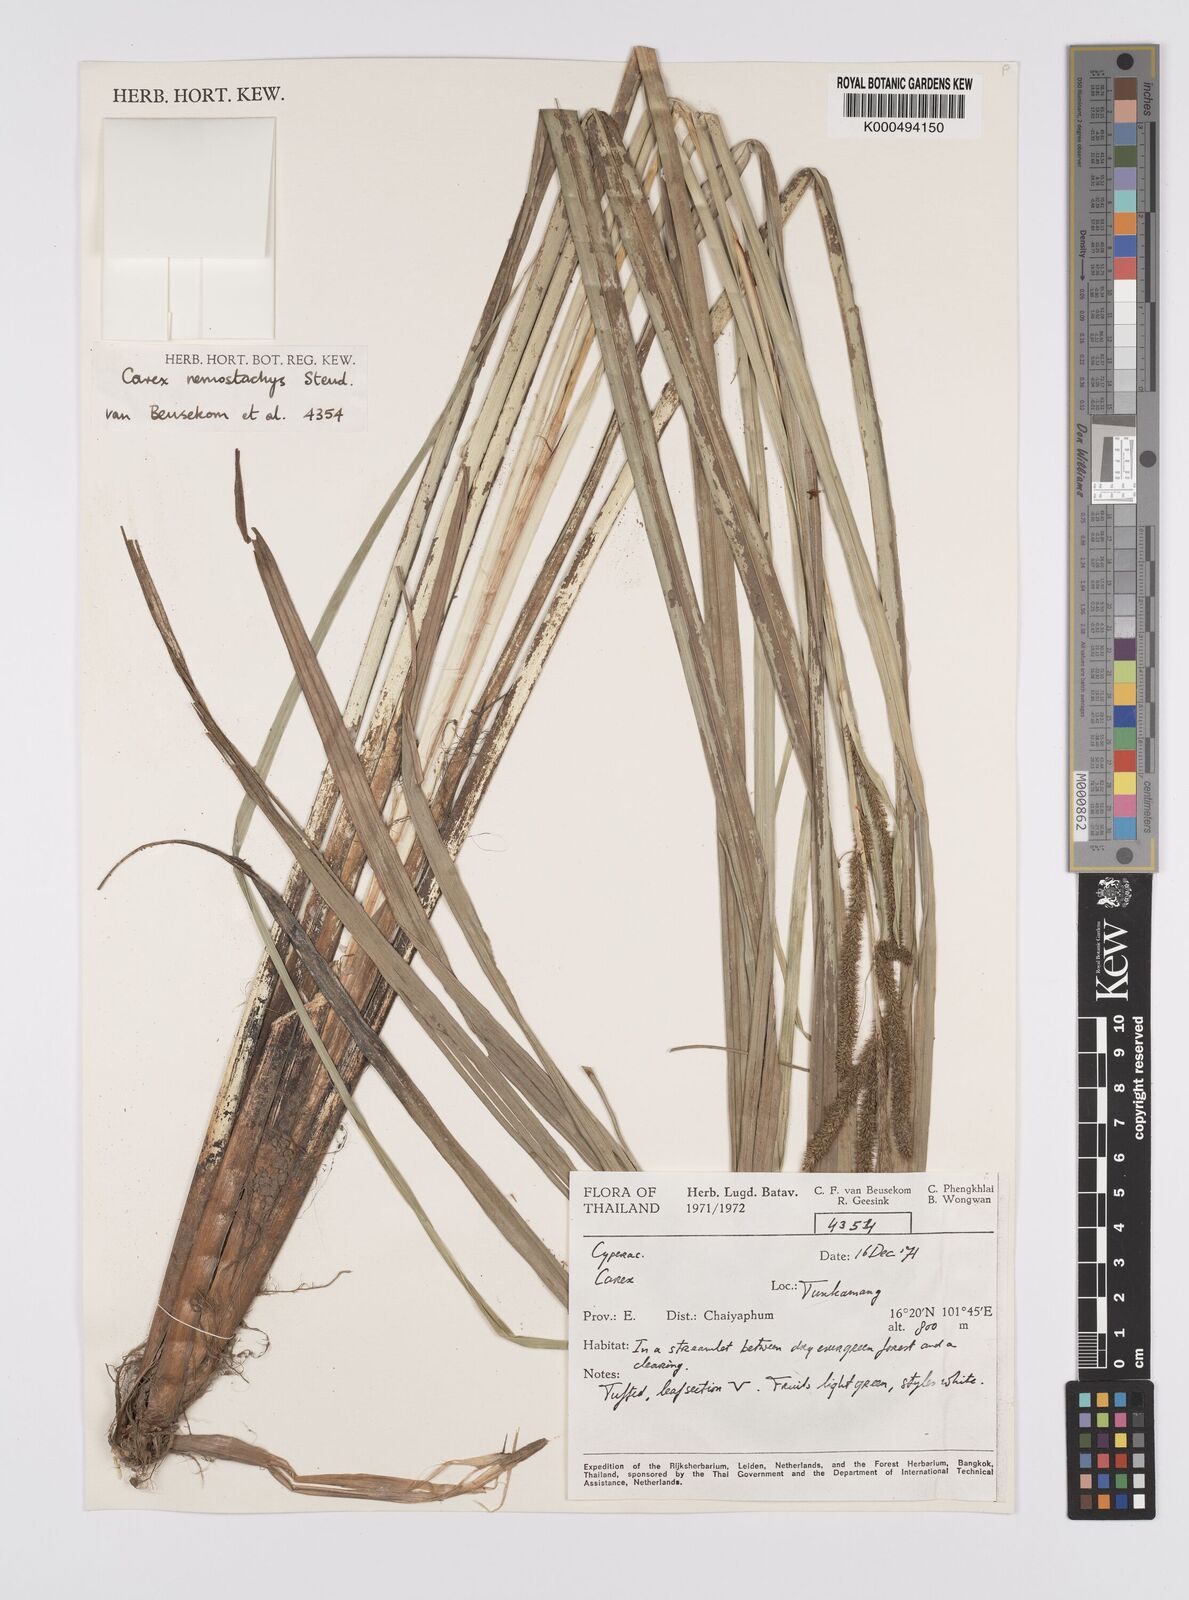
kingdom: Plantae
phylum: Tracheophyta
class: Liliopsida
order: Poales
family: Cyperaceae
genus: Carex
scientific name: Carex nemostachys
